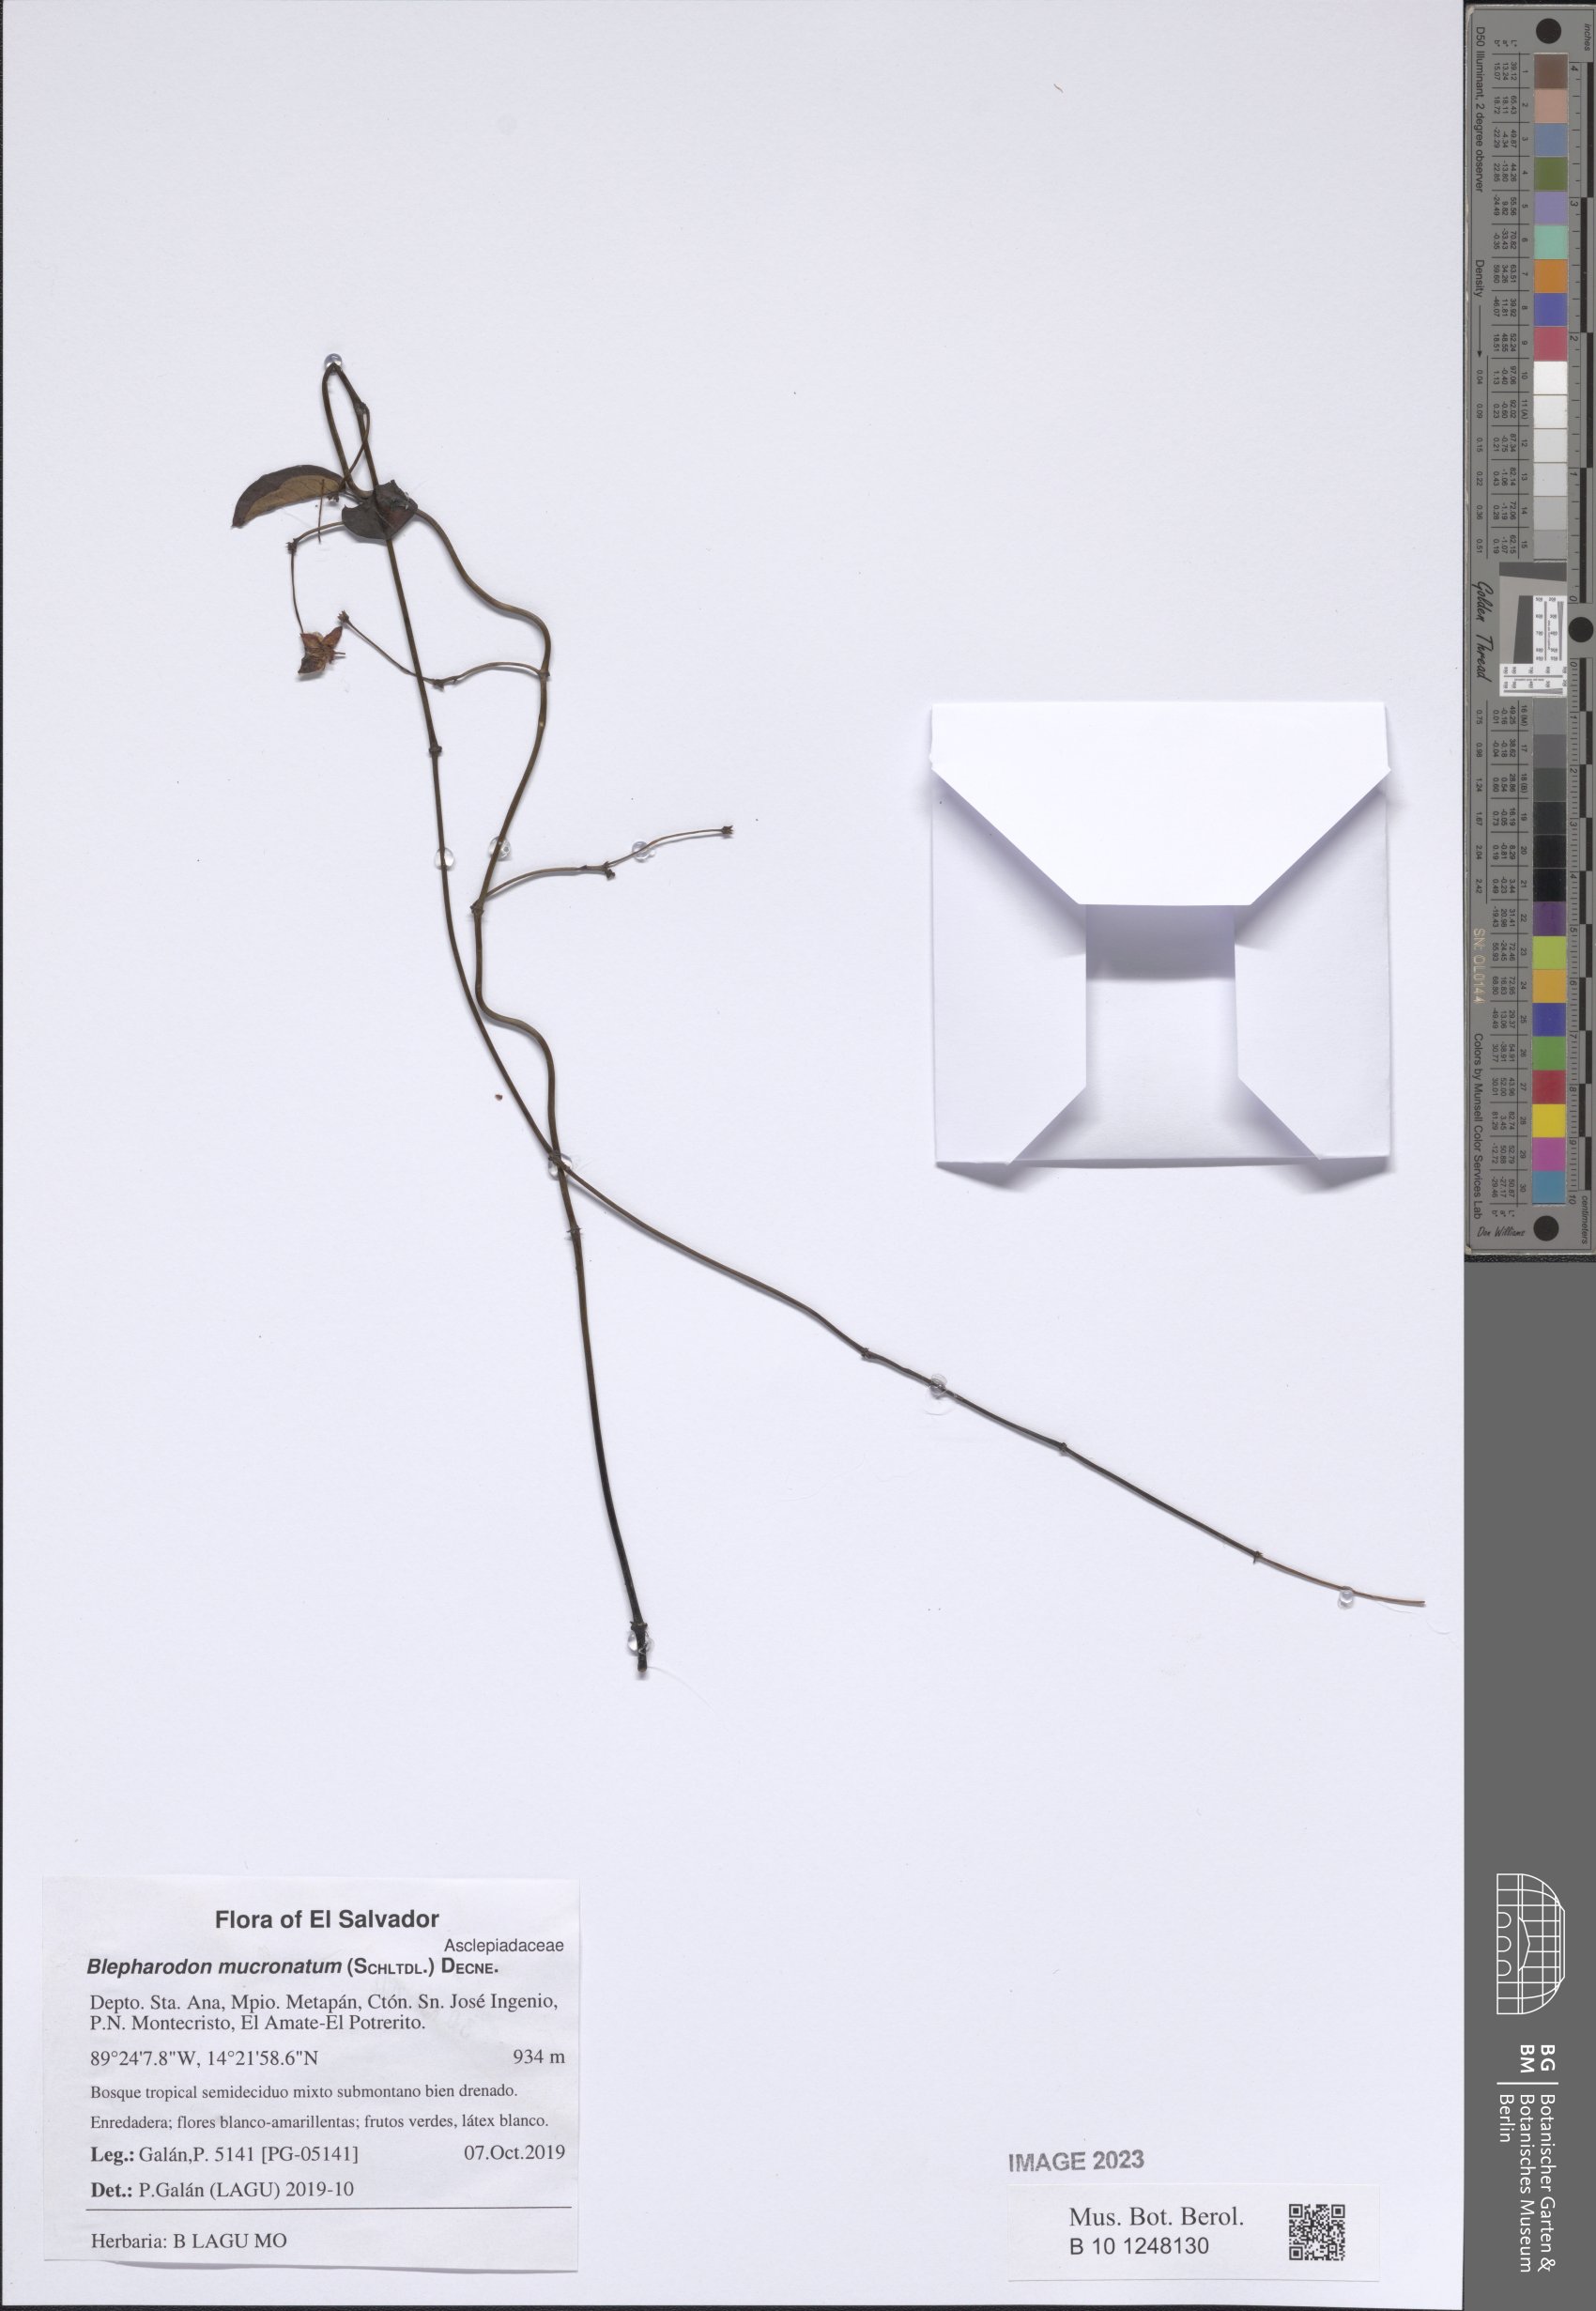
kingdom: Plantae
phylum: Tracheophyta
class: Magnoliopsida
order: Gentianales
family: Apocynaceae
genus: Vailia
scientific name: Vailia anomala
